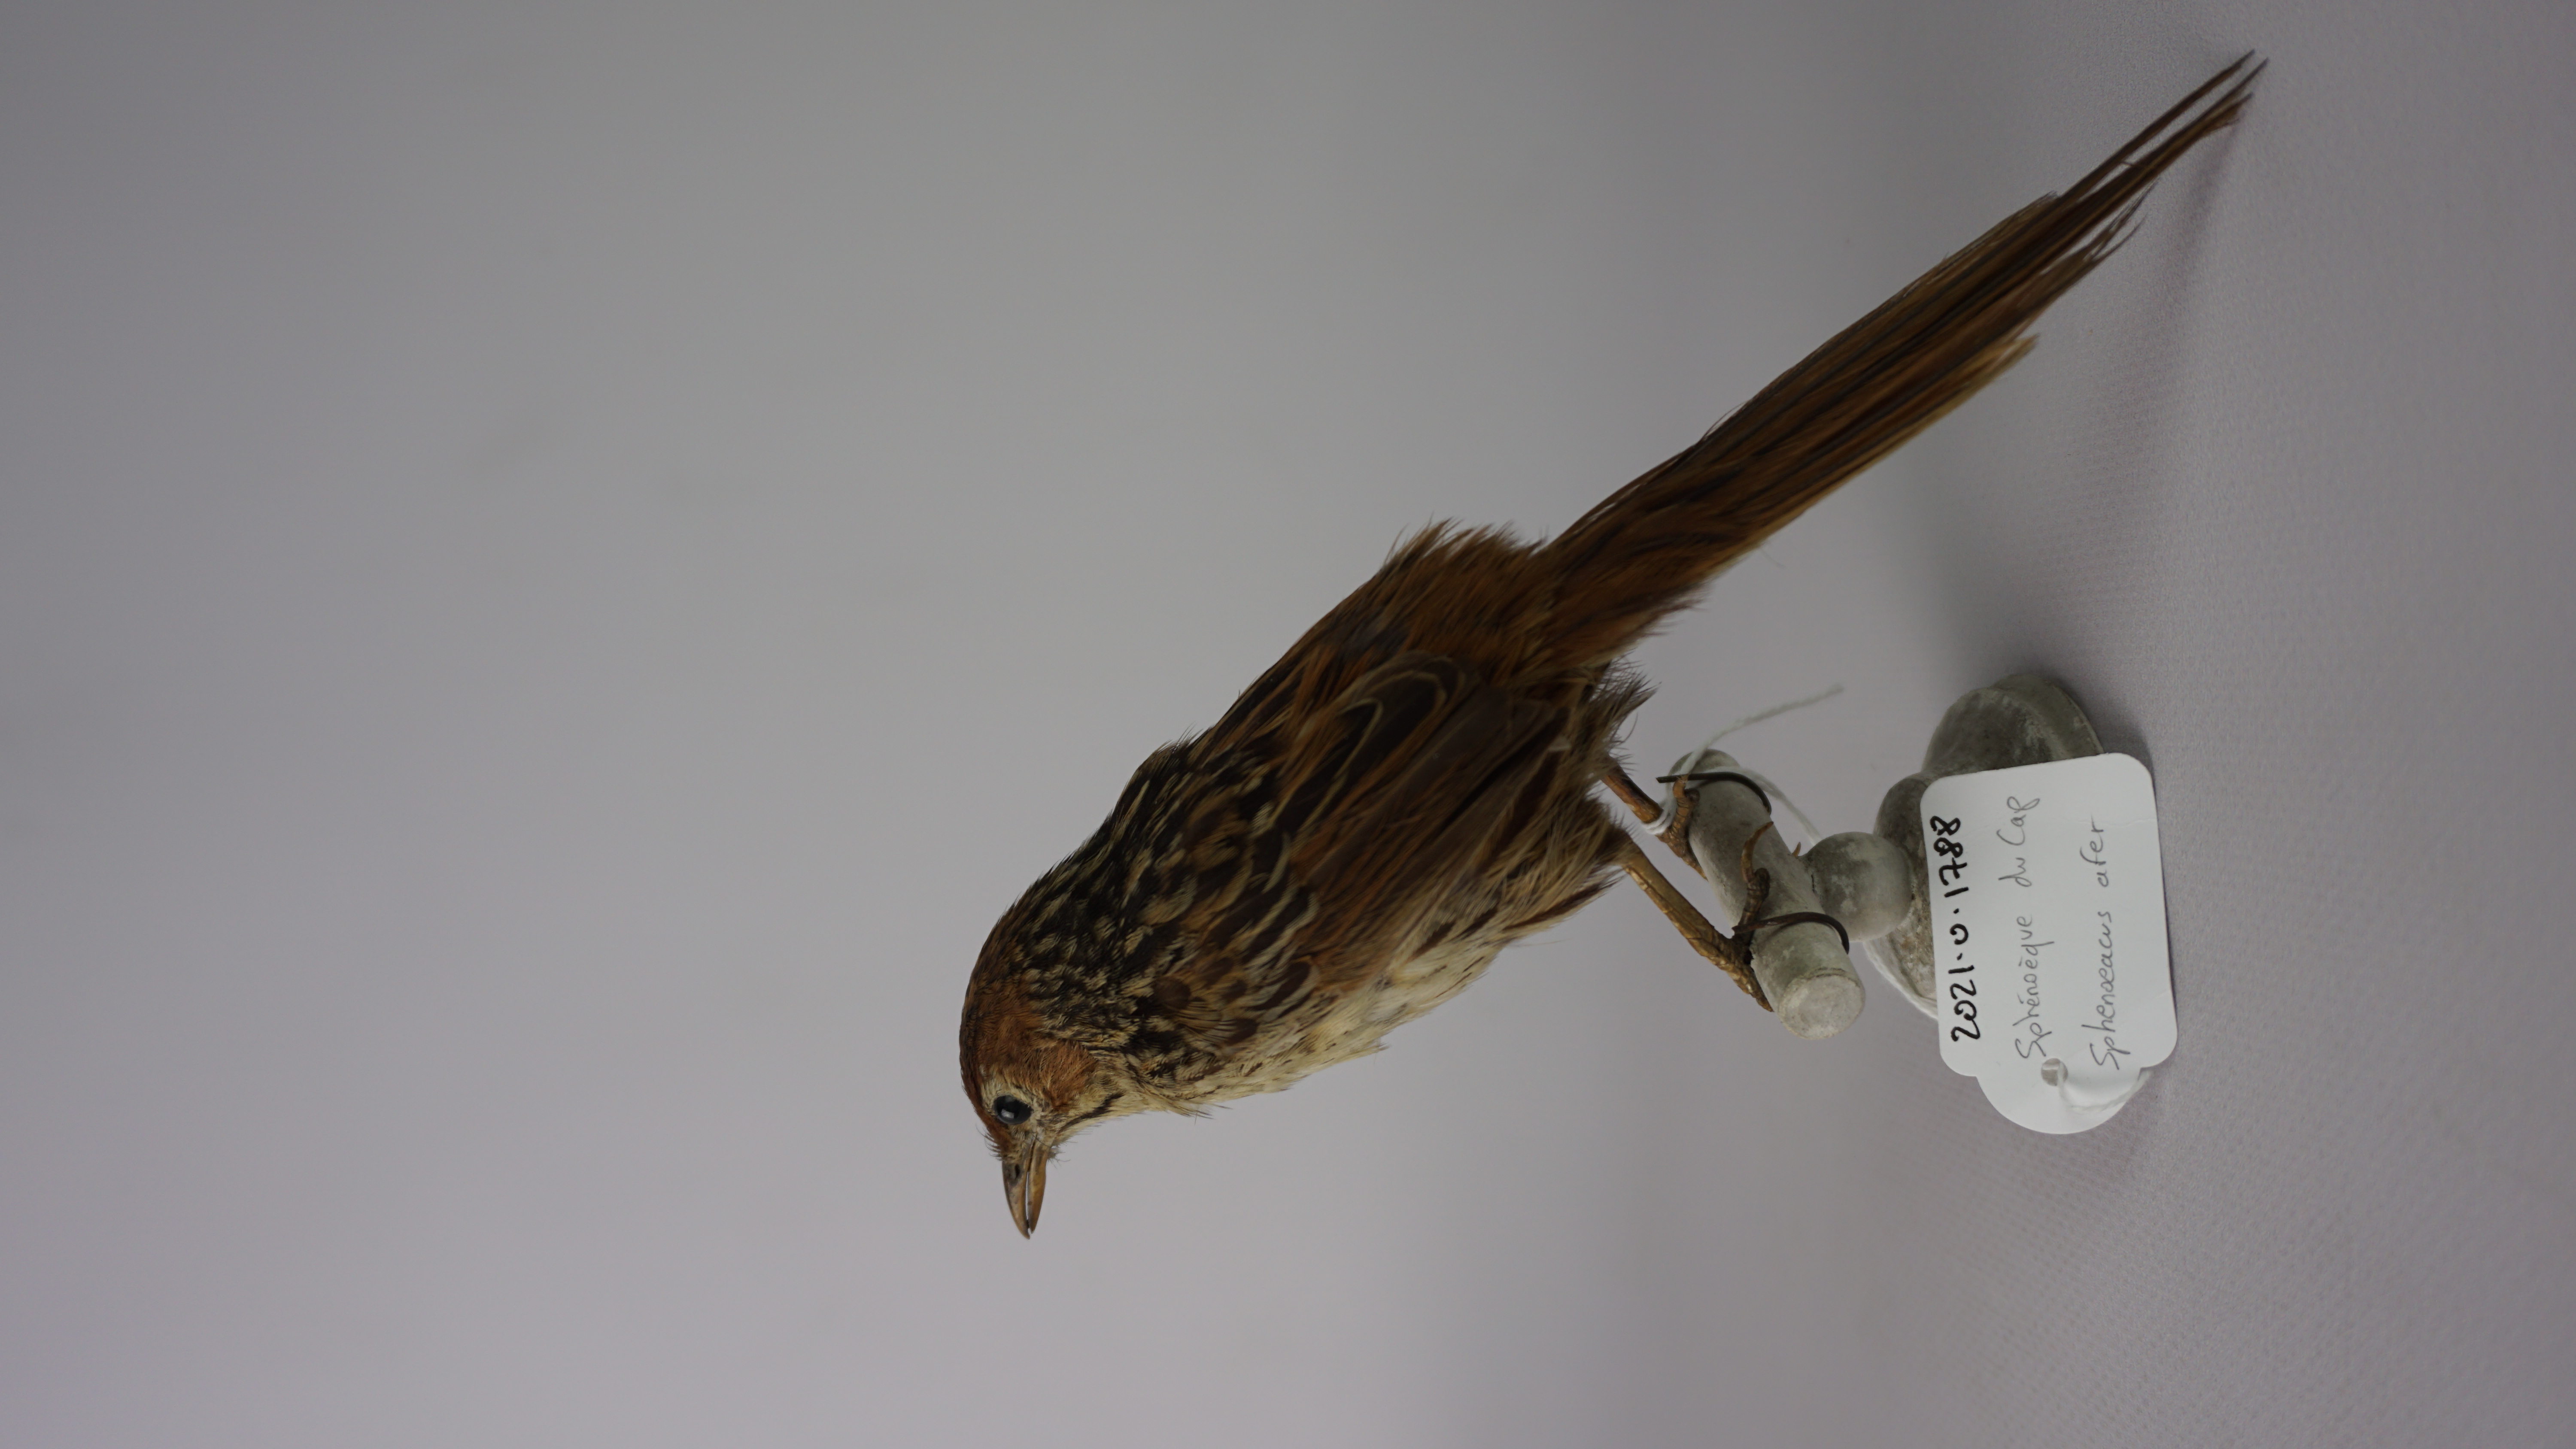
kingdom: Animalia
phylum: Chordata
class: Aves
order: Passeriformes
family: Macrosphenidae
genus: Sphenoeacus
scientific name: Sphenoeacus afer
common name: Cape grassbird
